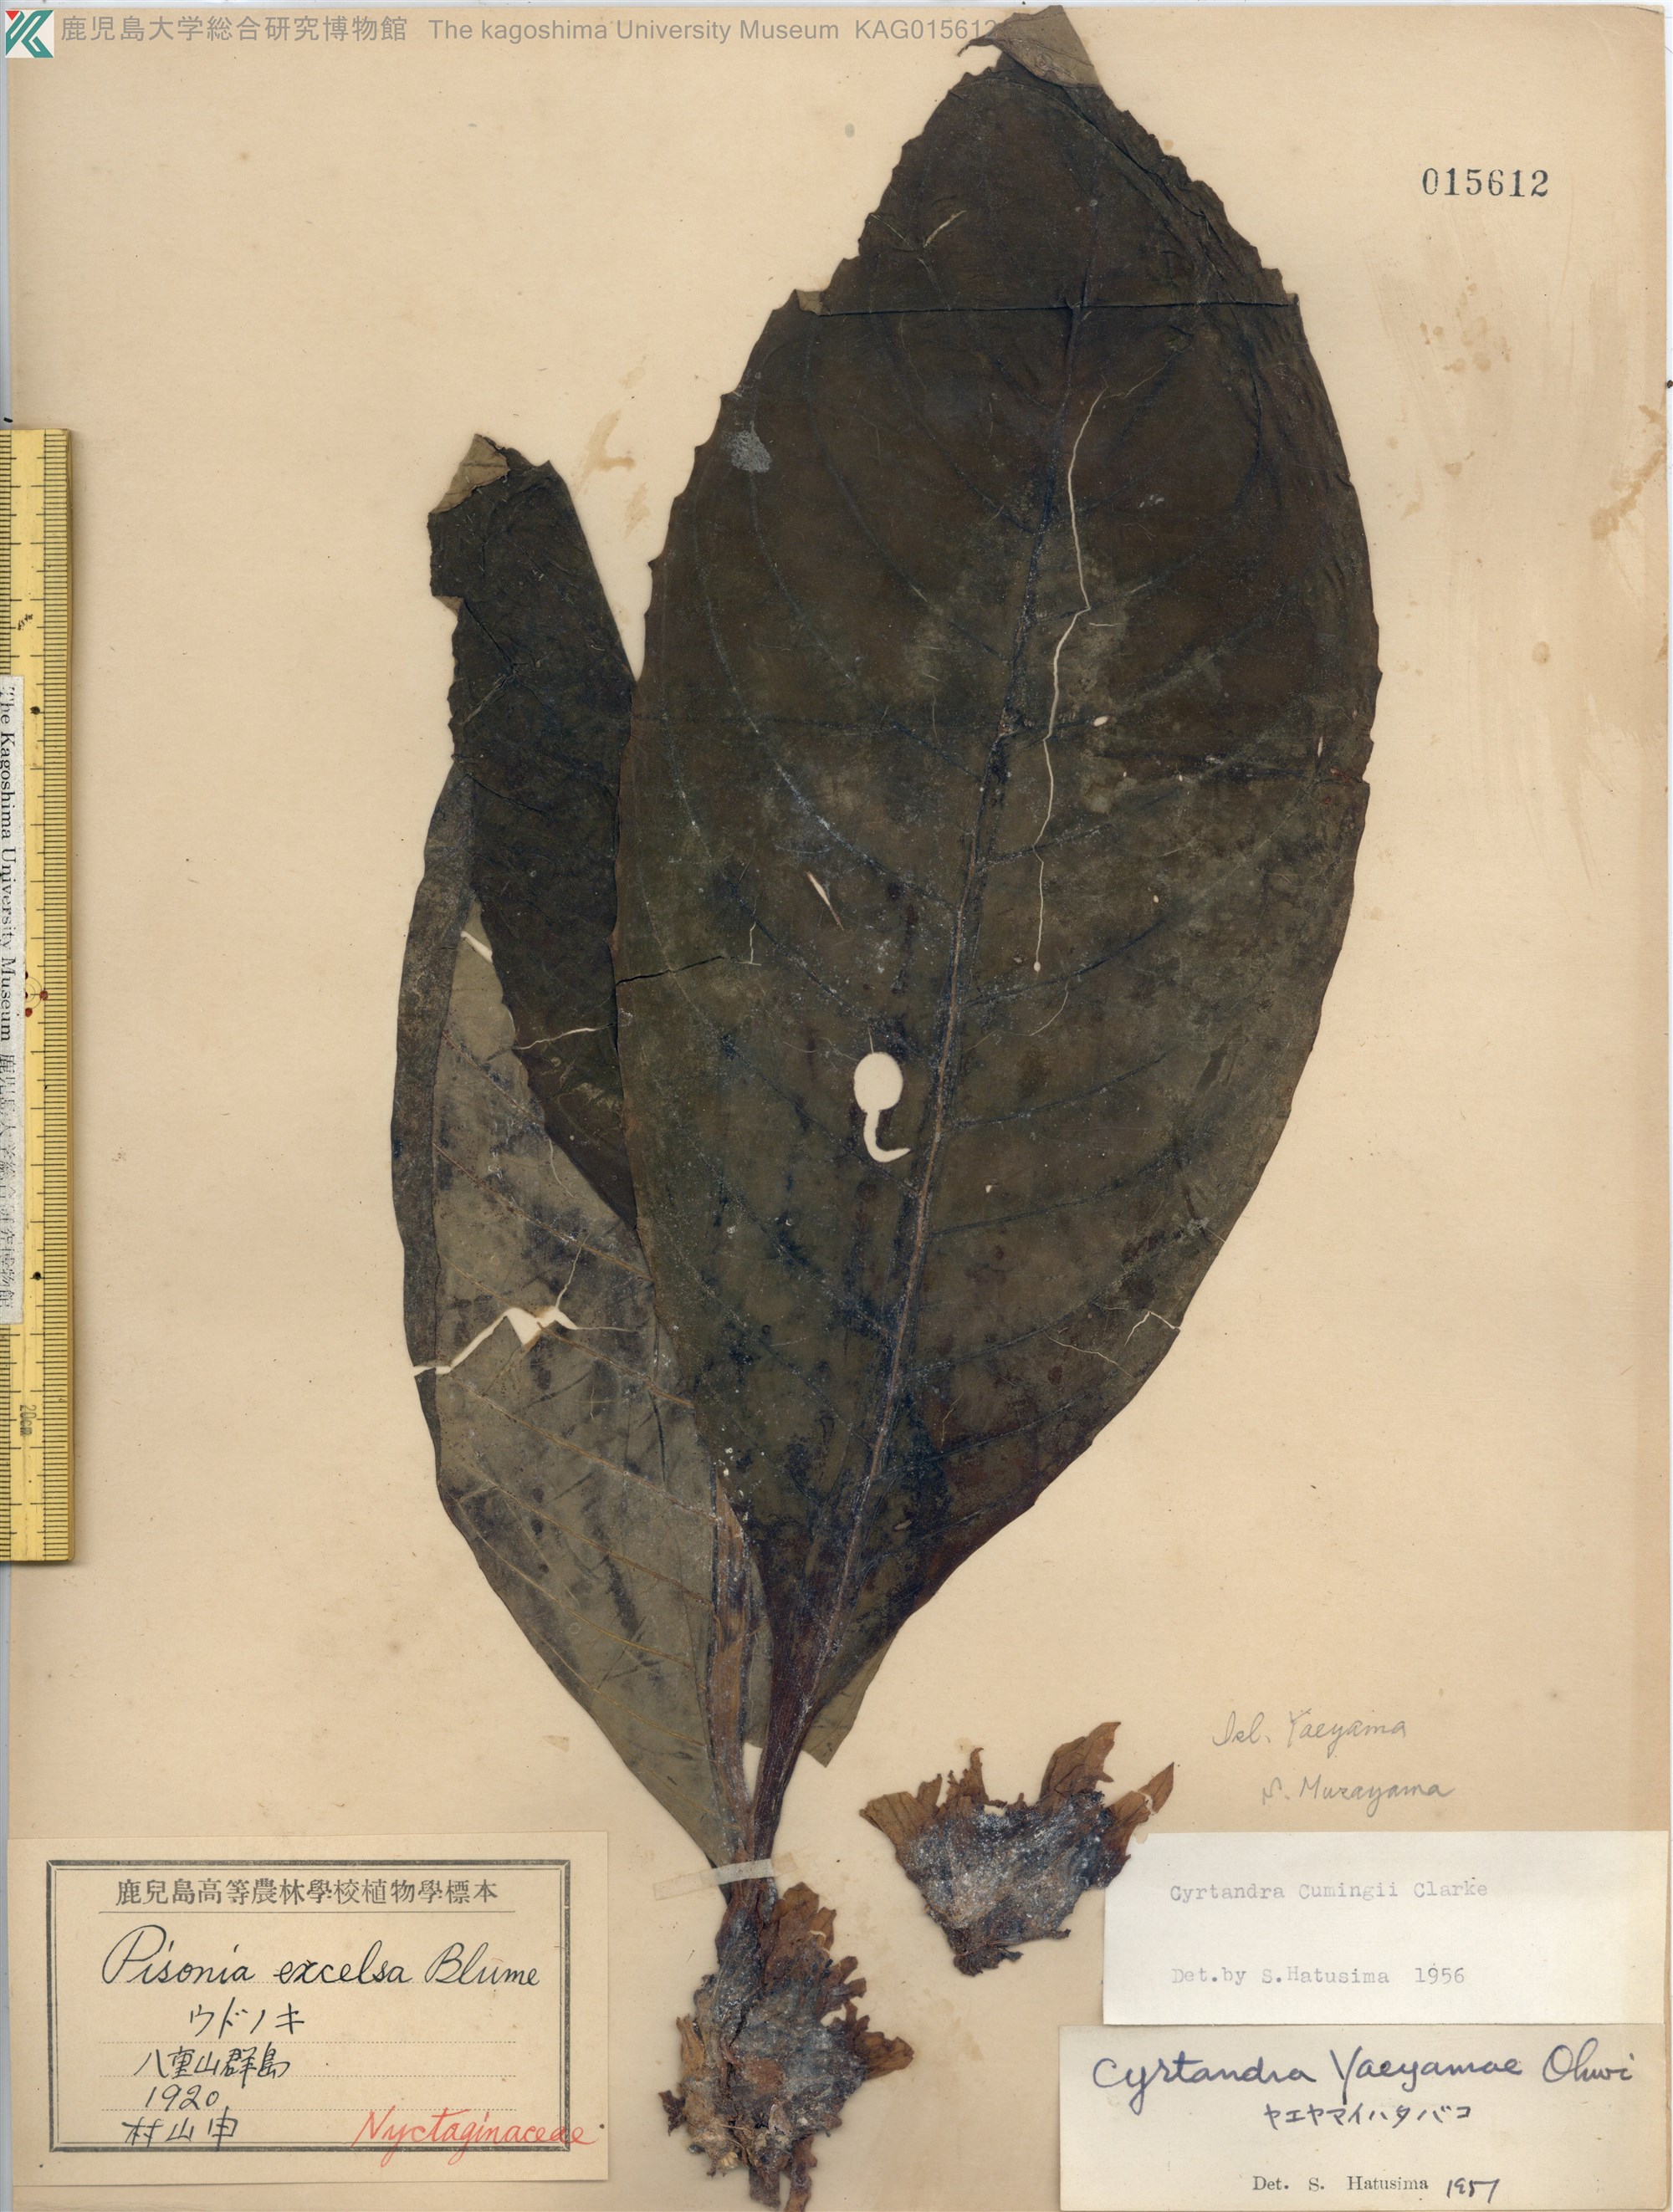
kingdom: Plantae
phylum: Tracheophyta
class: Magnoliopsida
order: Lamiales
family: Gesneriaceae
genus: Cyrtandra
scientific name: Cyrtandra yaeyamae
